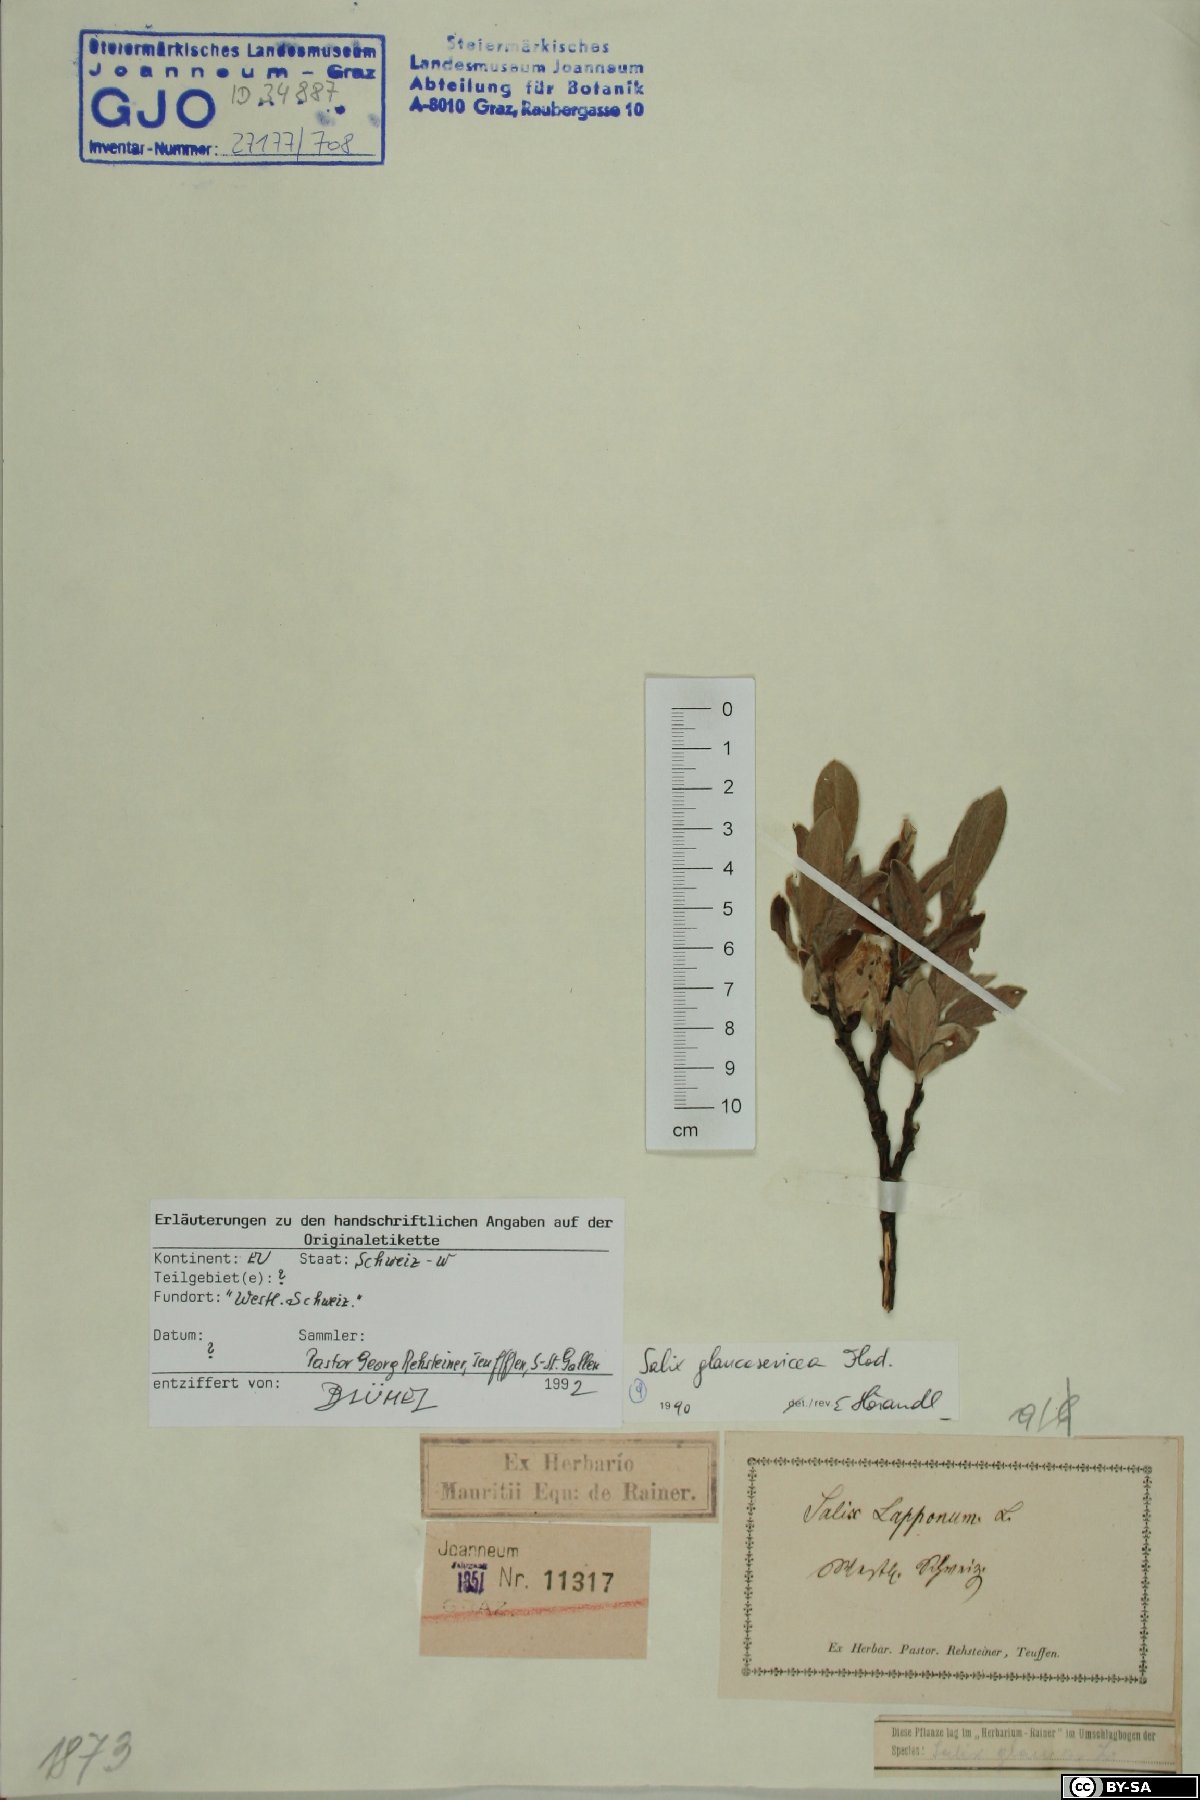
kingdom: Plantae
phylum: Tracheophyta
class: Magnoliopsida
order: Malpighiales
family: Salicaceae
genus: Salix
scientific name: Salix glaucosericea
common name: Alpine gray willow
